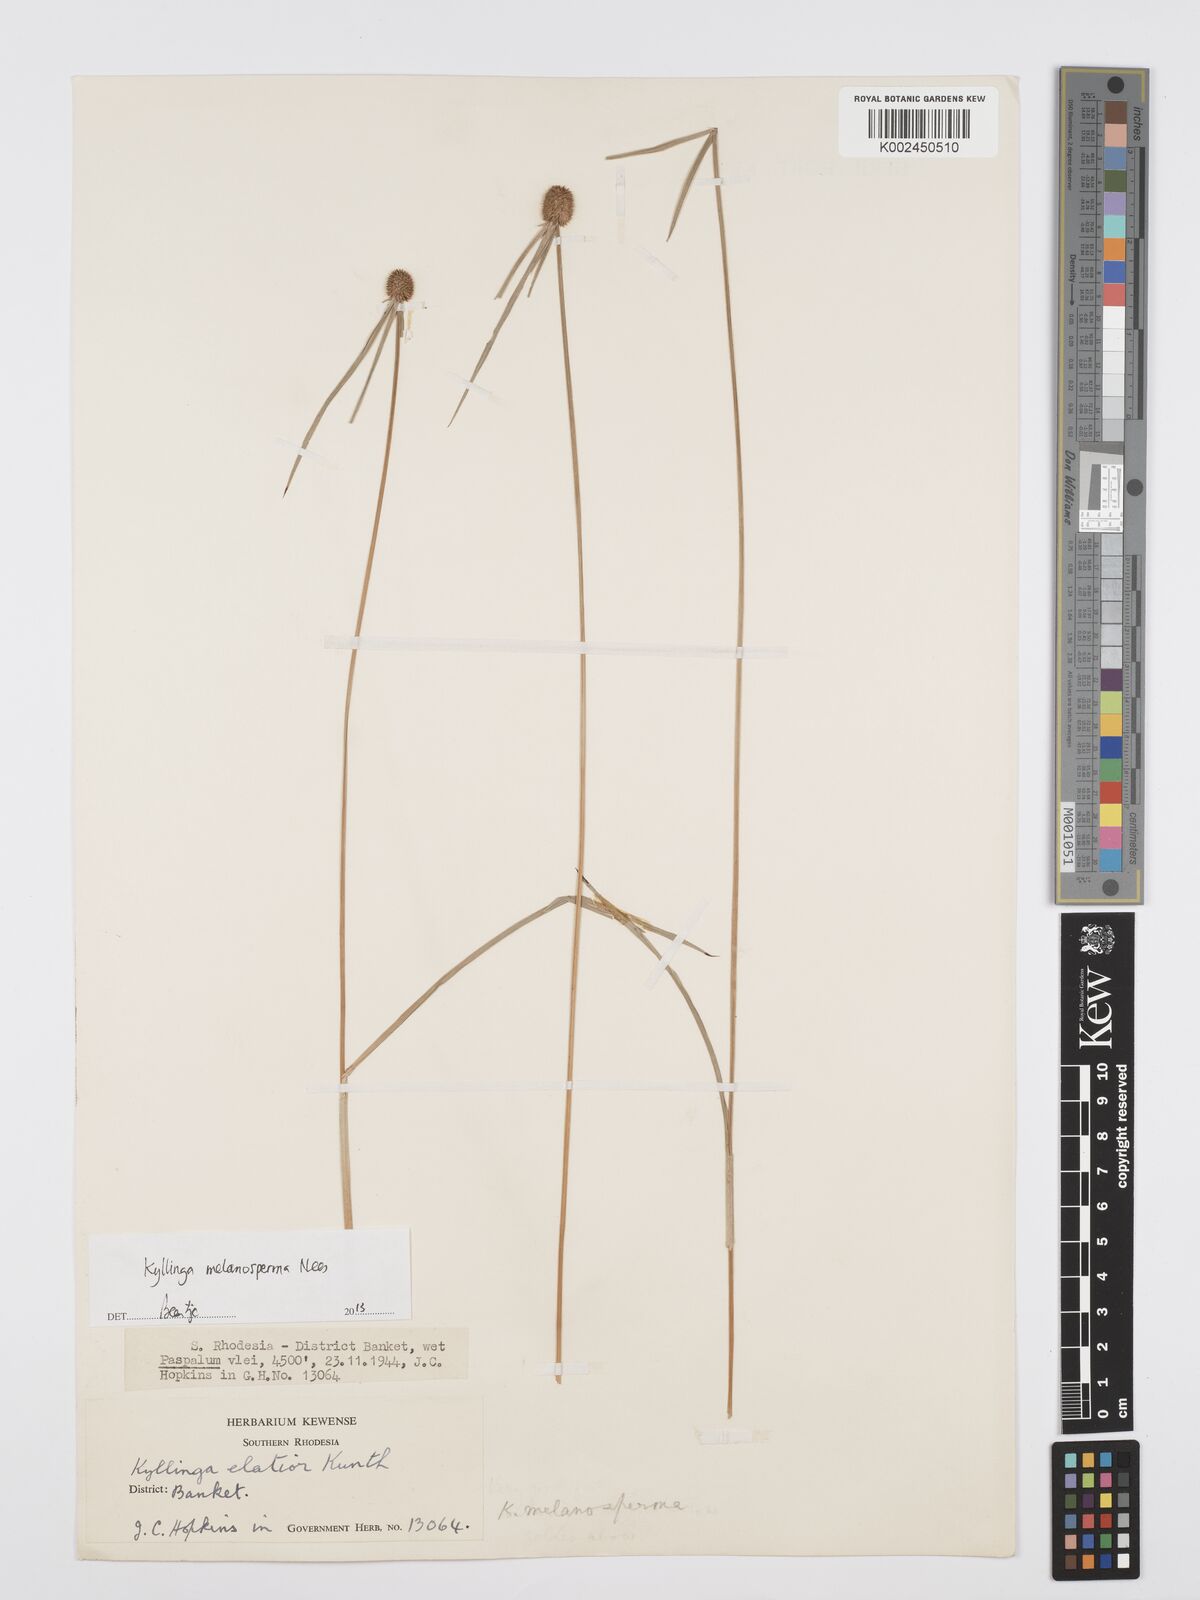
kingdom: Plantae
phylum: Tracheophyta
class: Liliopsida
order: Poales
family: Cyperaceae
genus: Cyperus
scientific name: Cyperus melanospermus
